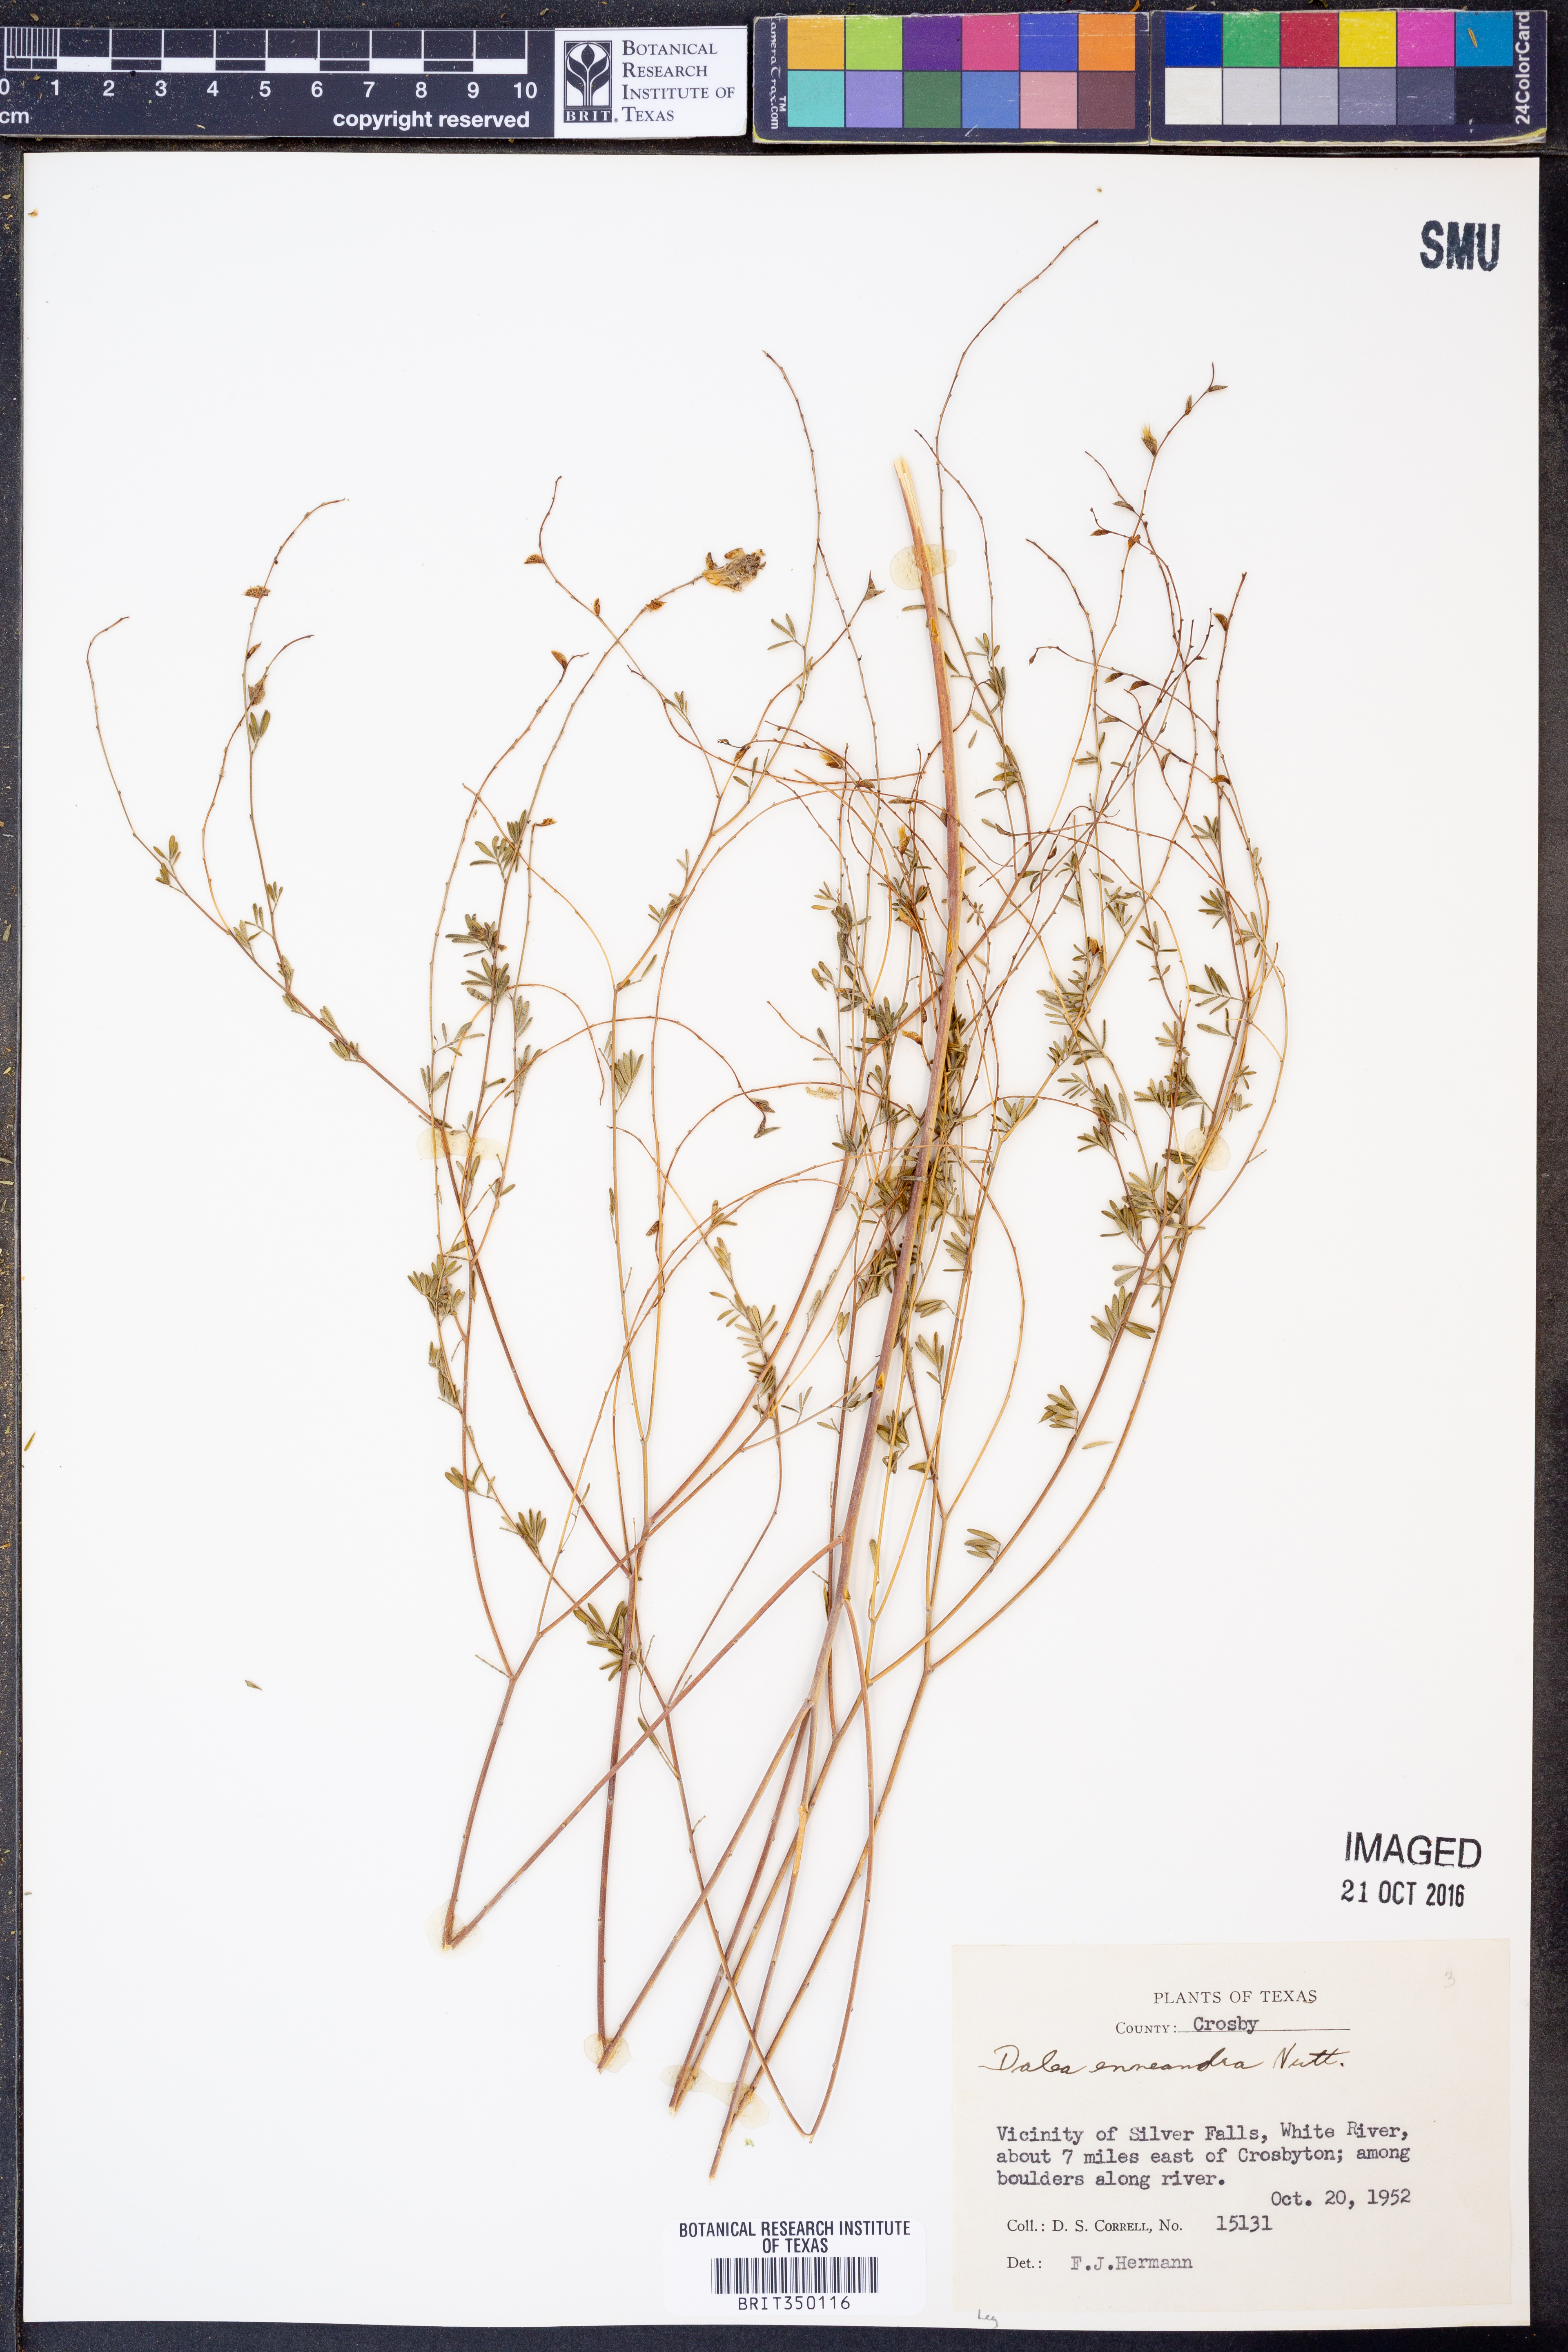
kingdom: Plantae
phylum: Tracheophyta
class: Magnoliopsida
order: Fabales
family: Fabaceae
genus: Dalea
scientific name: Dalea enneandra
